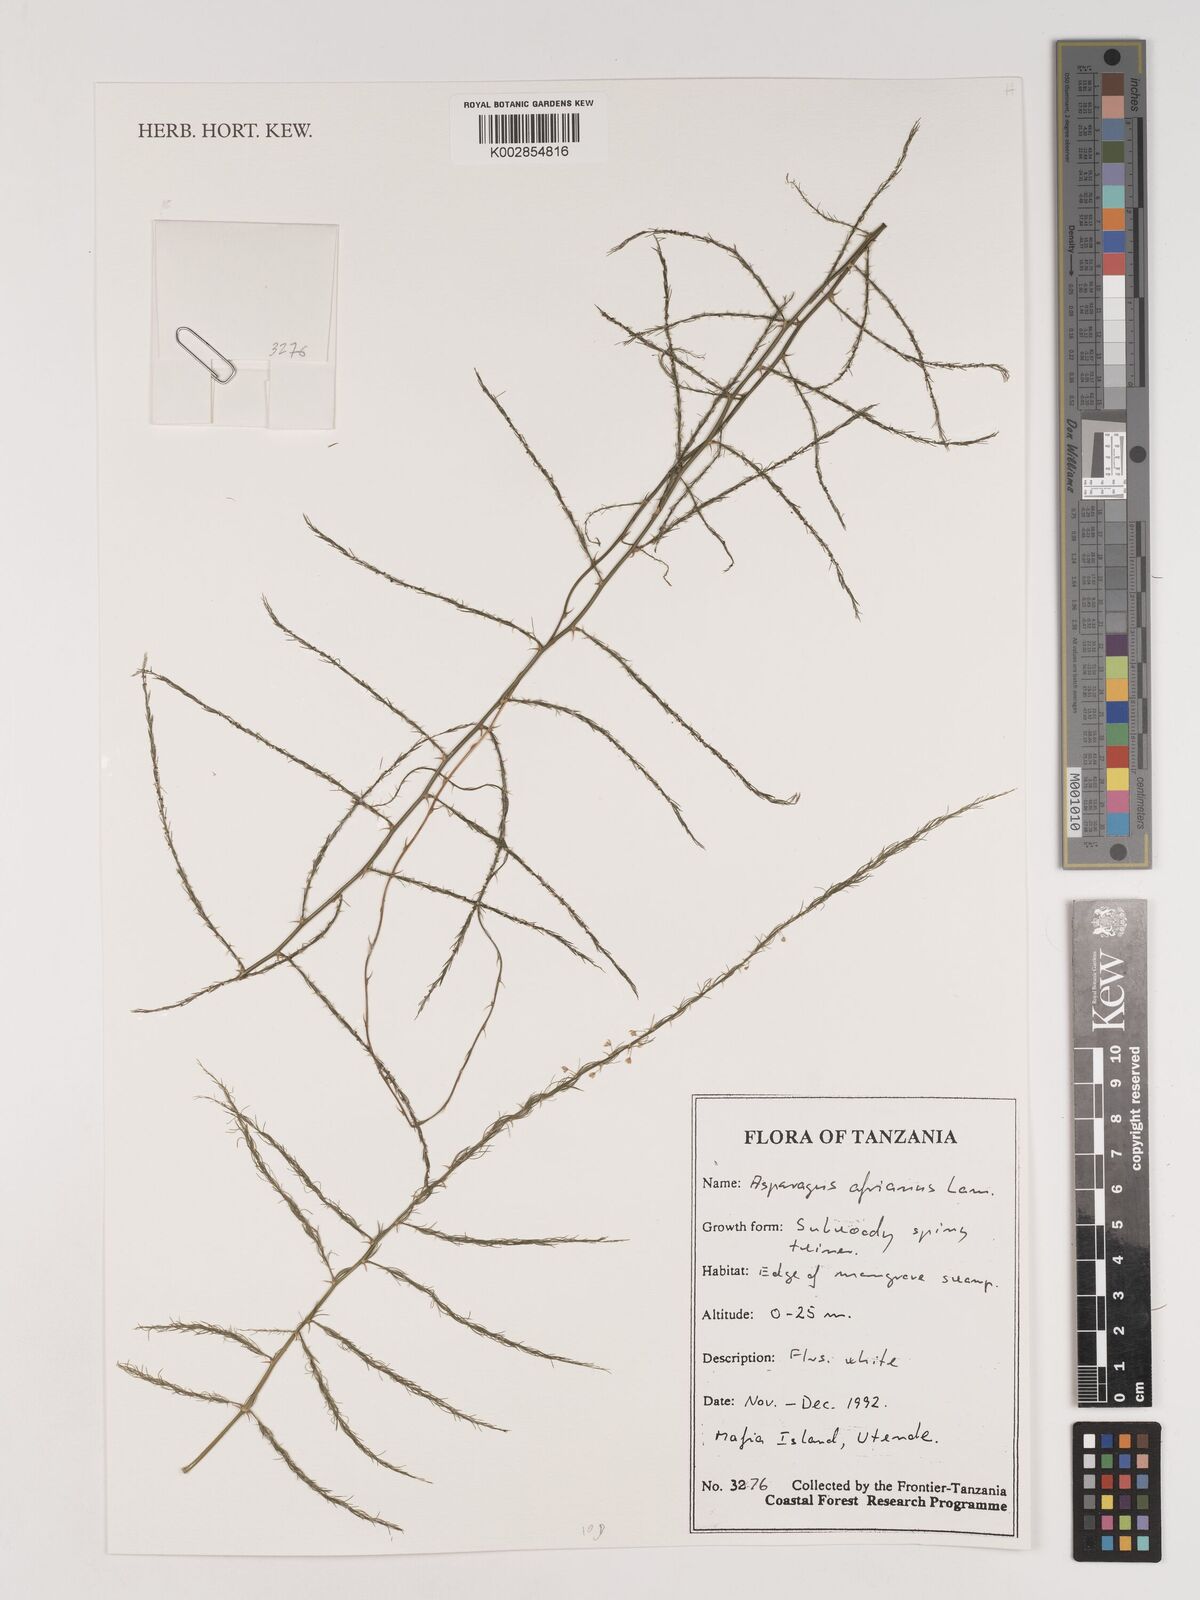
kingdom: Plantae
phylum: Tracheophyta
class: Liliopsida
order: Asparagales
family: Asparagaceae
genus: Asparagus
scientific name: Asparagus africanus
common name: Asparagus-fern
